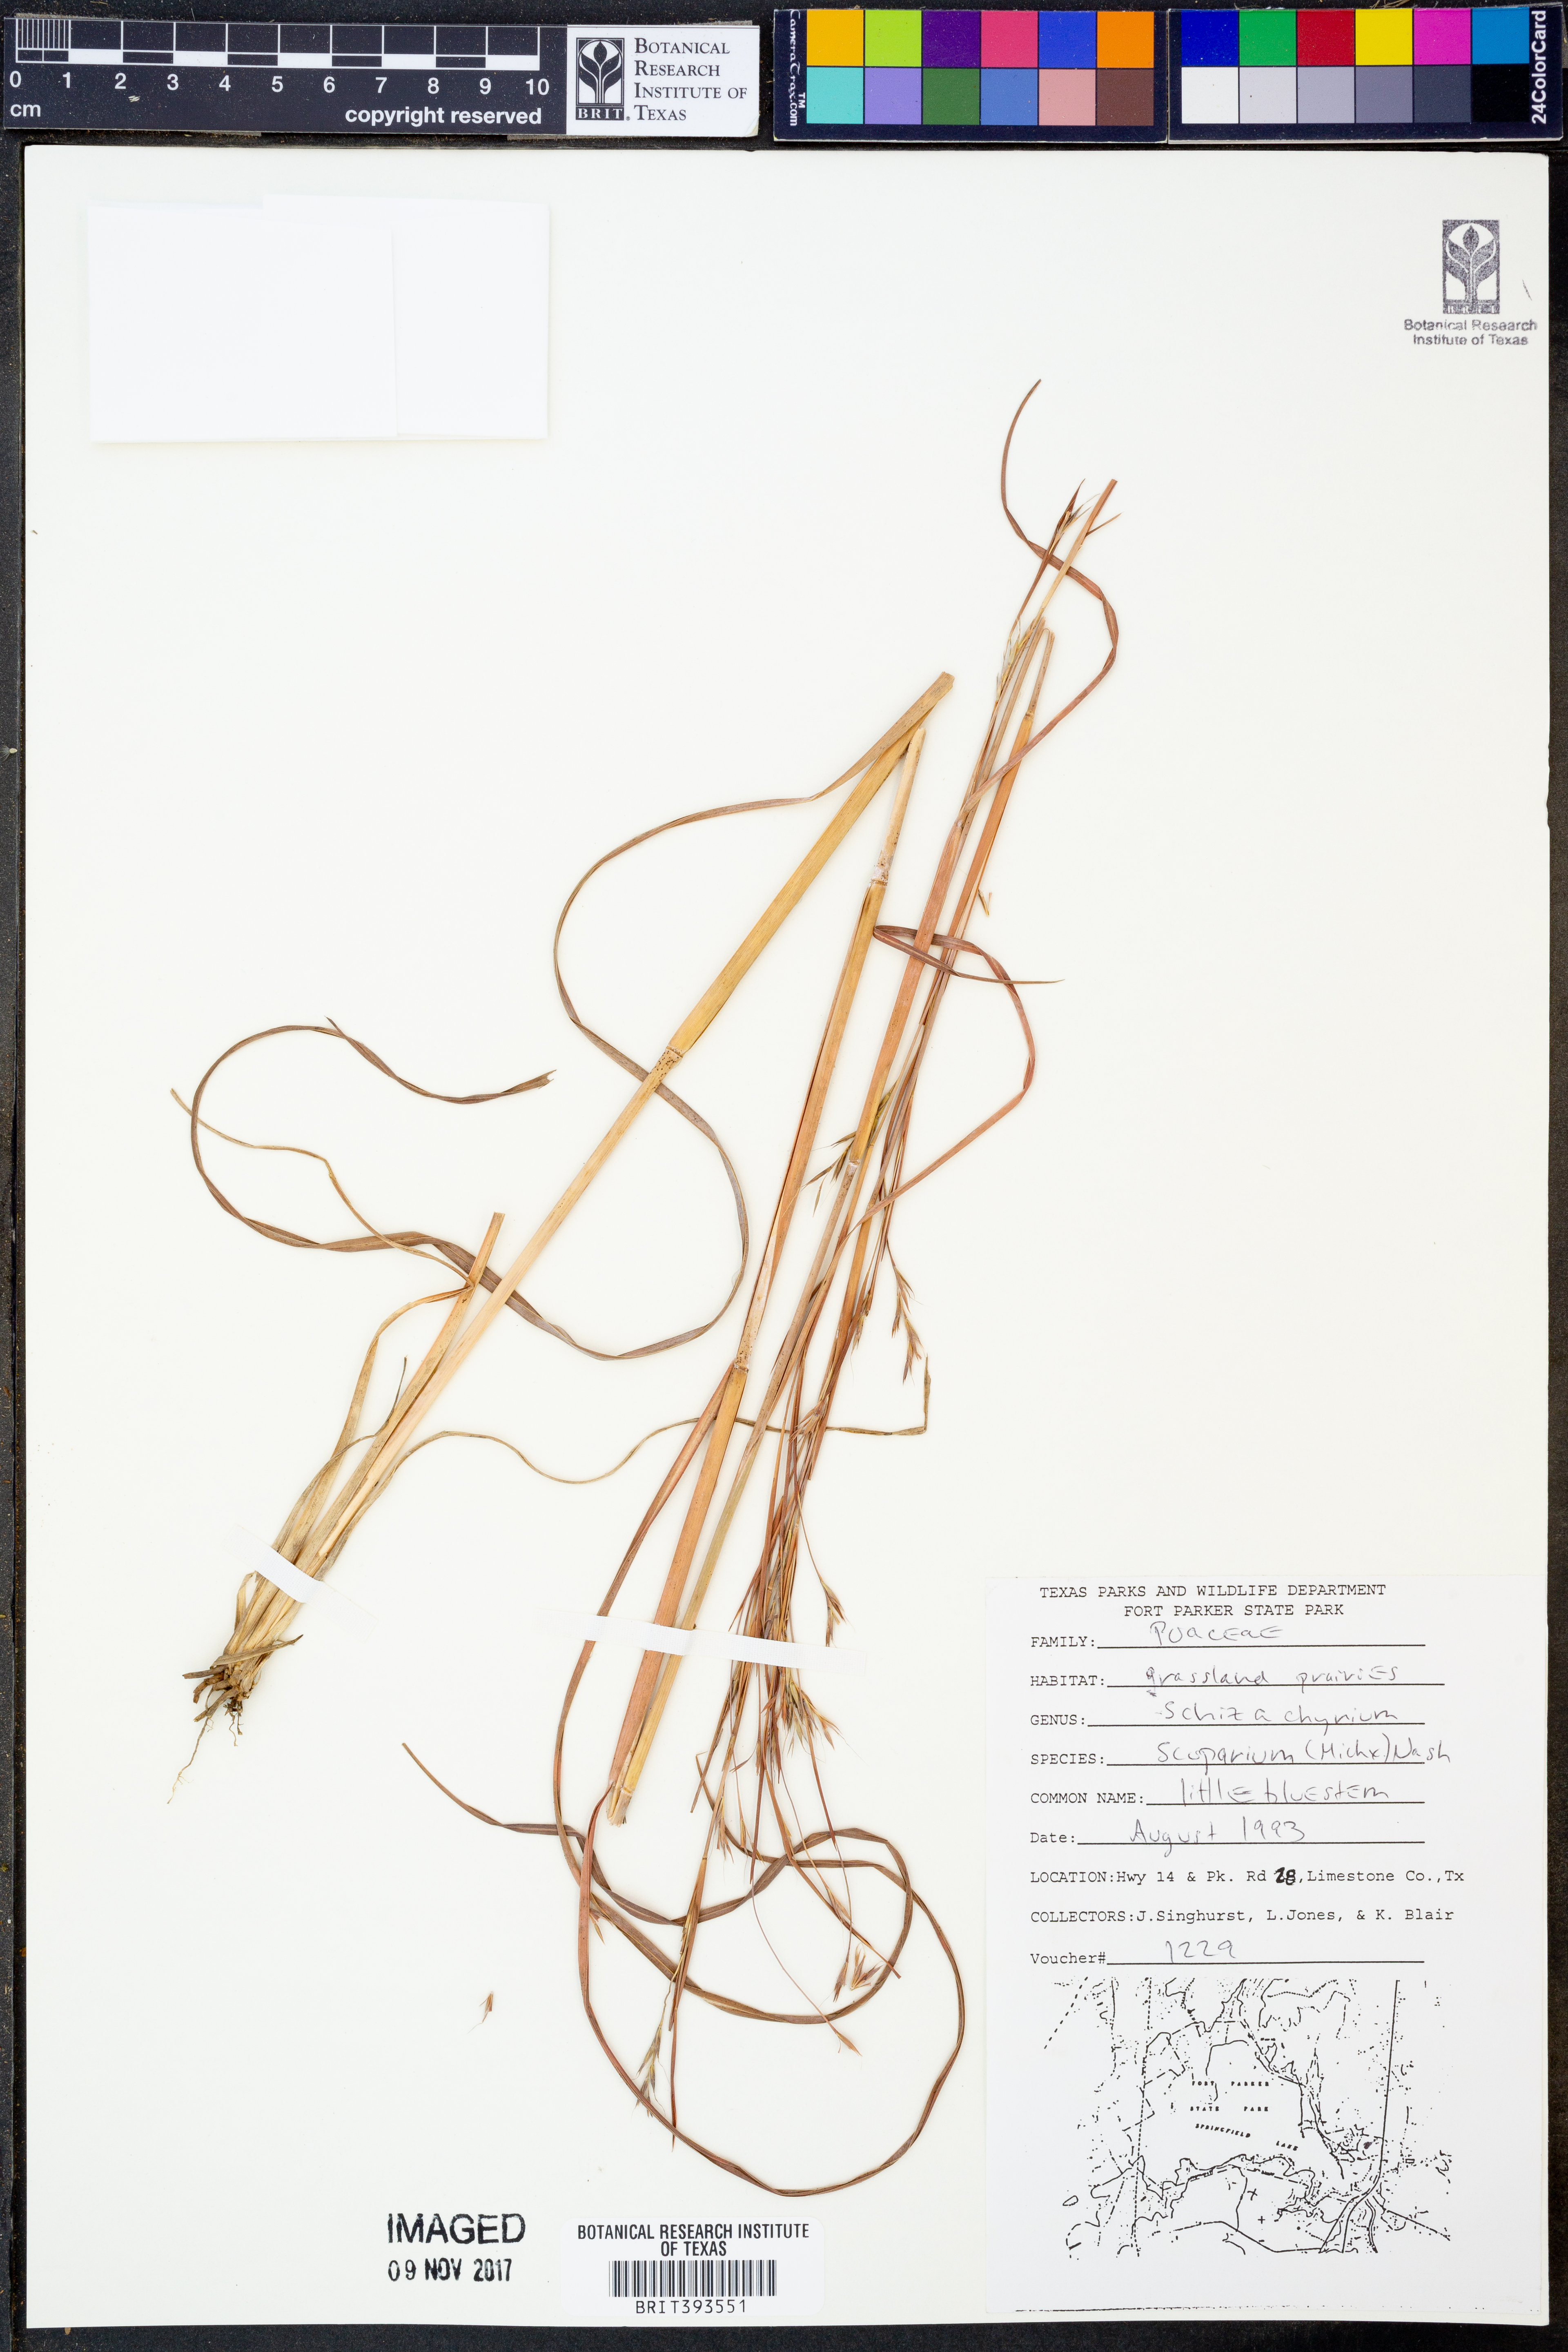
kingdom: Plantae
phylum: Tracheophyta
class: Liliopsida
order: Poales
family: Poaceae
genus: Schizachyrium
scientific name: Schizachyrium scoparium
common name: Little bluestem
